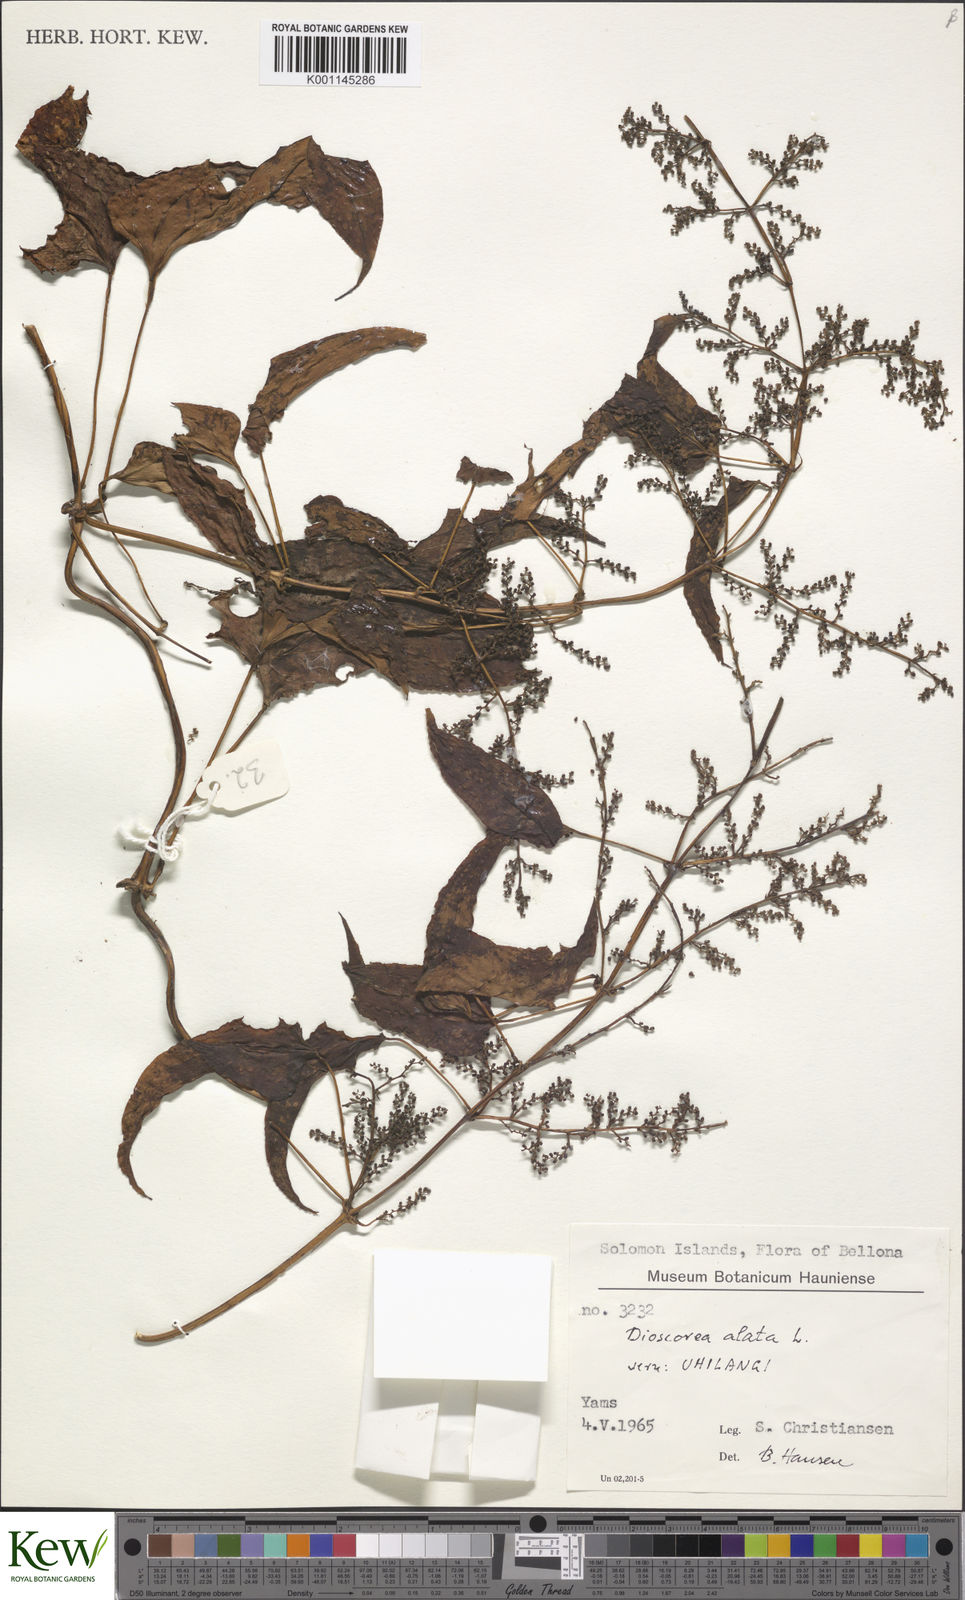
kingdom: Plantae
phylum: Tracheophyta
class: Liliopsida
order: Dioscoreales
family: Dioscoreaceae
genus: Dioscorea
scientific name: Dioscorea alata
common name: Water yam
